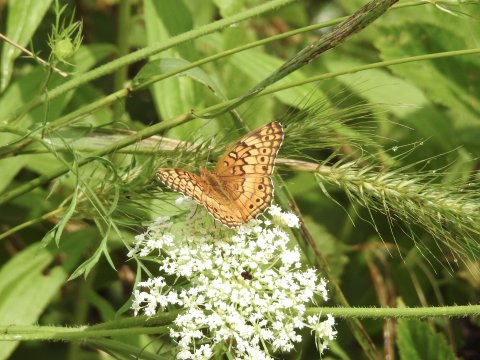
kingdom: Animalia
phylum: Arthropoda
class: Insecta
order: Lepidoptera
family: Nymphalidae
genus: Euptoieta
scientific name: Euptoieta claudia
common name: Variegated Fritillary
